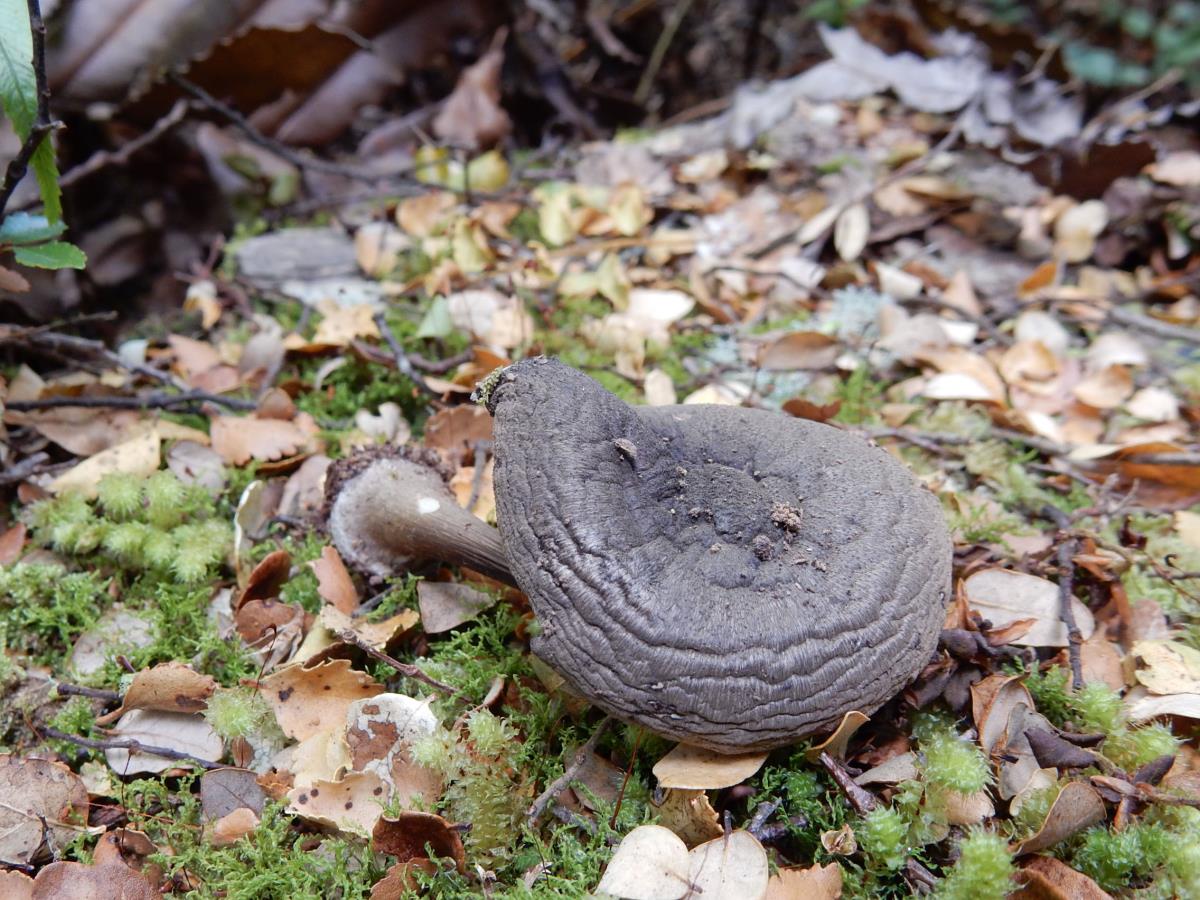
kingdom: Fungi
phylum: Basidiomycota
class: Agaricomycetes
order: Agaricales
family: Pluteaceae
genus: Pluteus
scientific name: Pluteus similis
